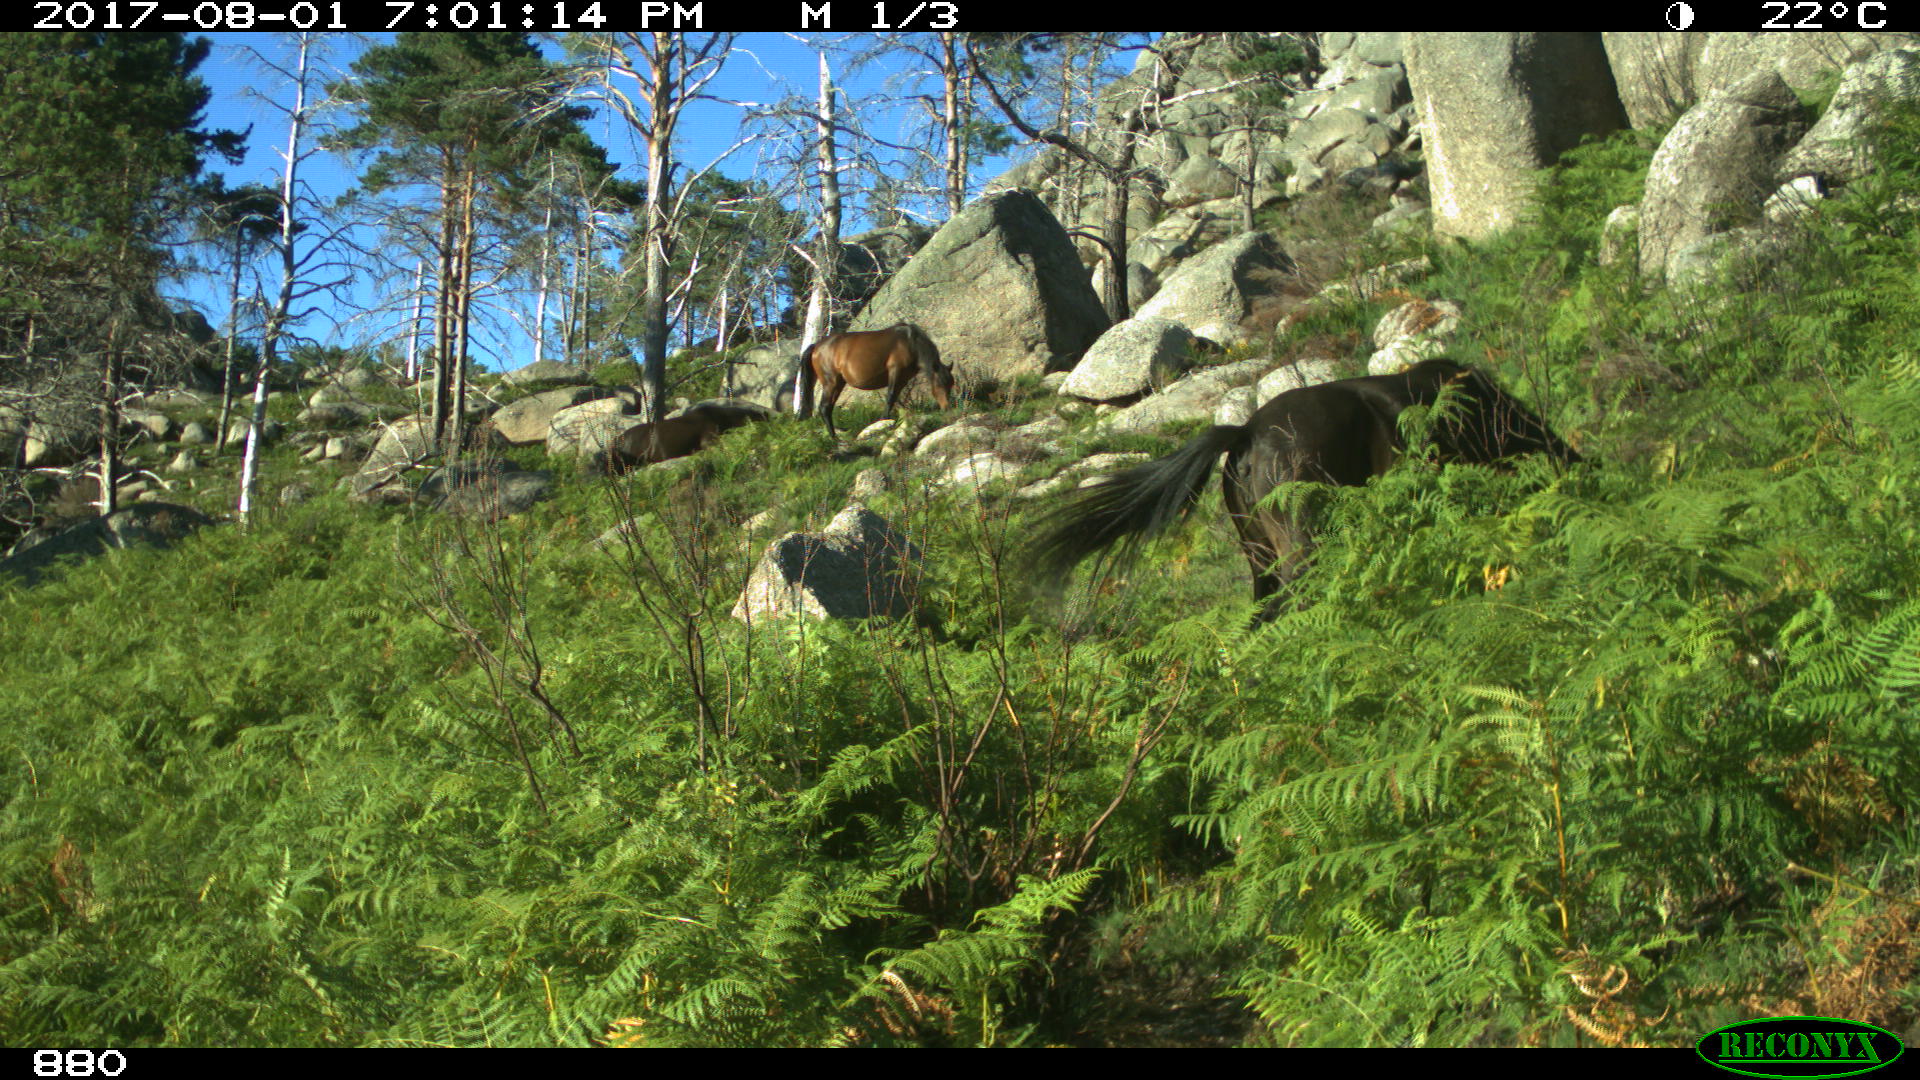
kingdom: Animalia
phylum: Chordata
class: Mammalia
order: Perissodactyla
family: Equidae
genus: Equus
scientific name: Equus caballus
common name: Horse
